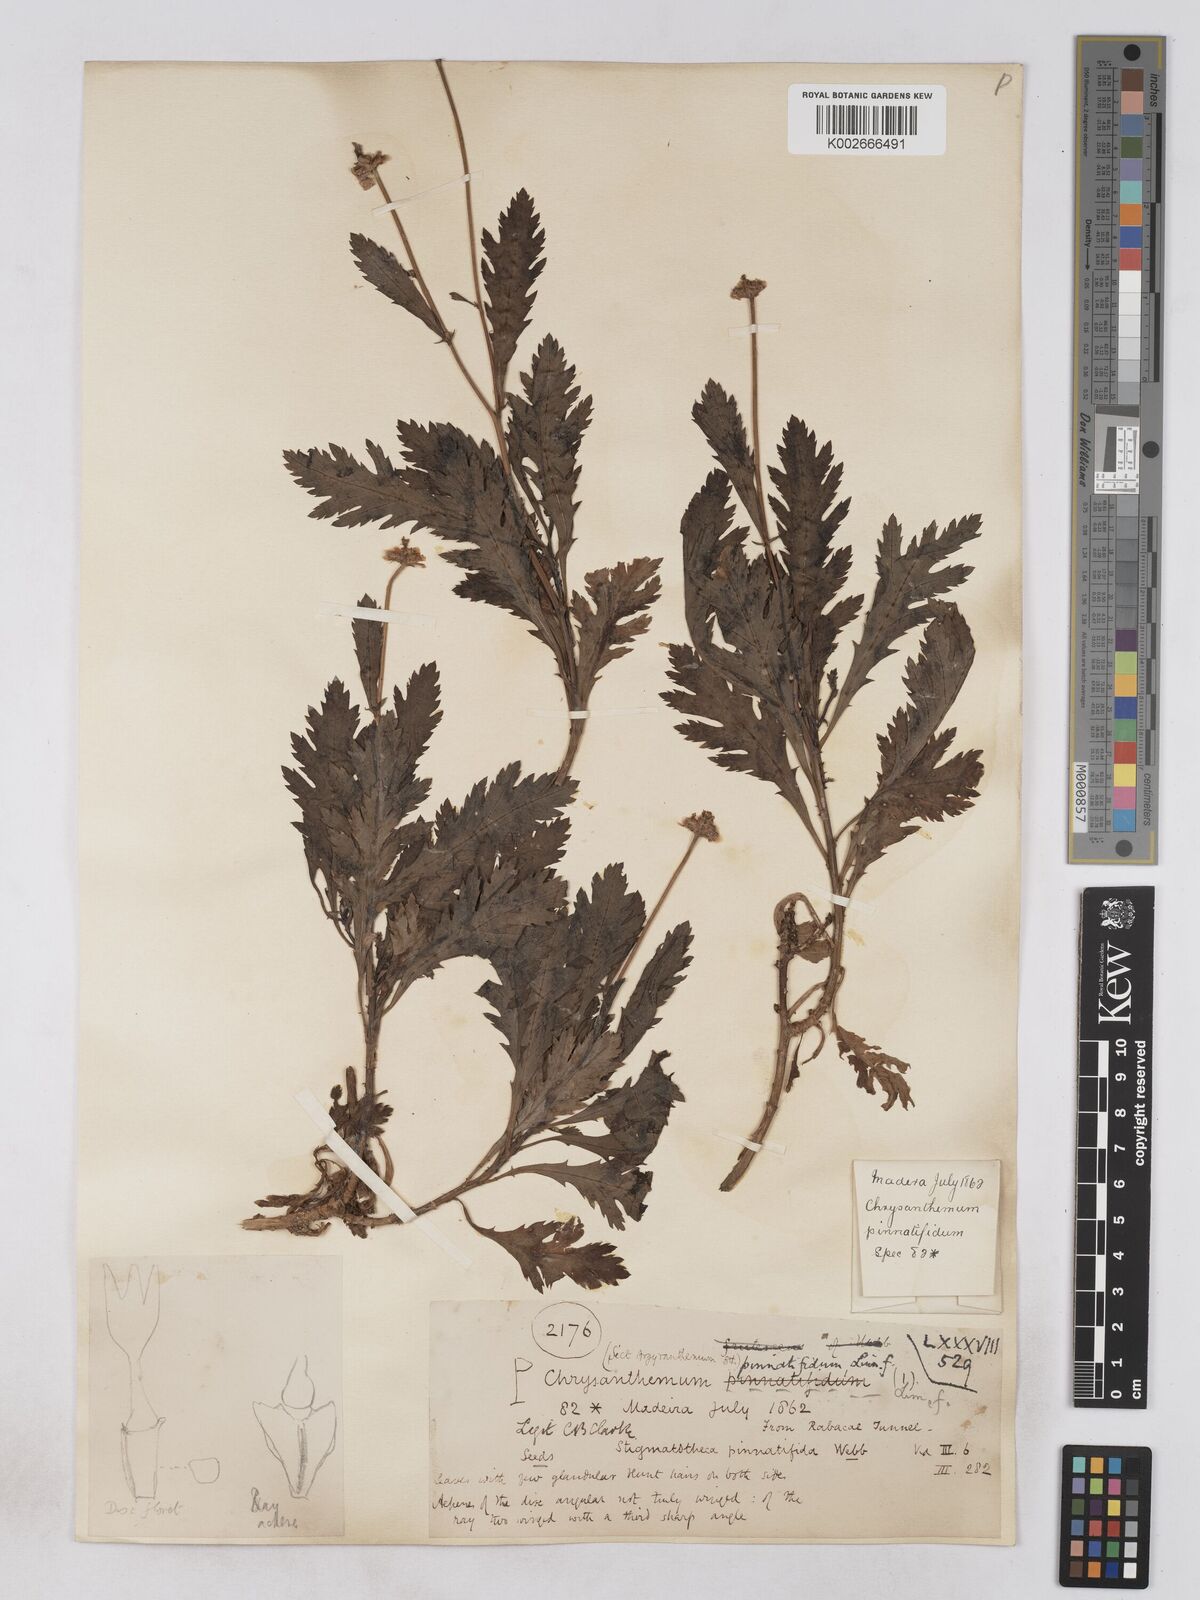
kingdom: Plantae
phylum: Tracheophyta
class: Magnoliopsida
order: Asterales
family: Asteraceae
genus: Argyranthemum
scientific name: Argyranthemum pinnatifidum
